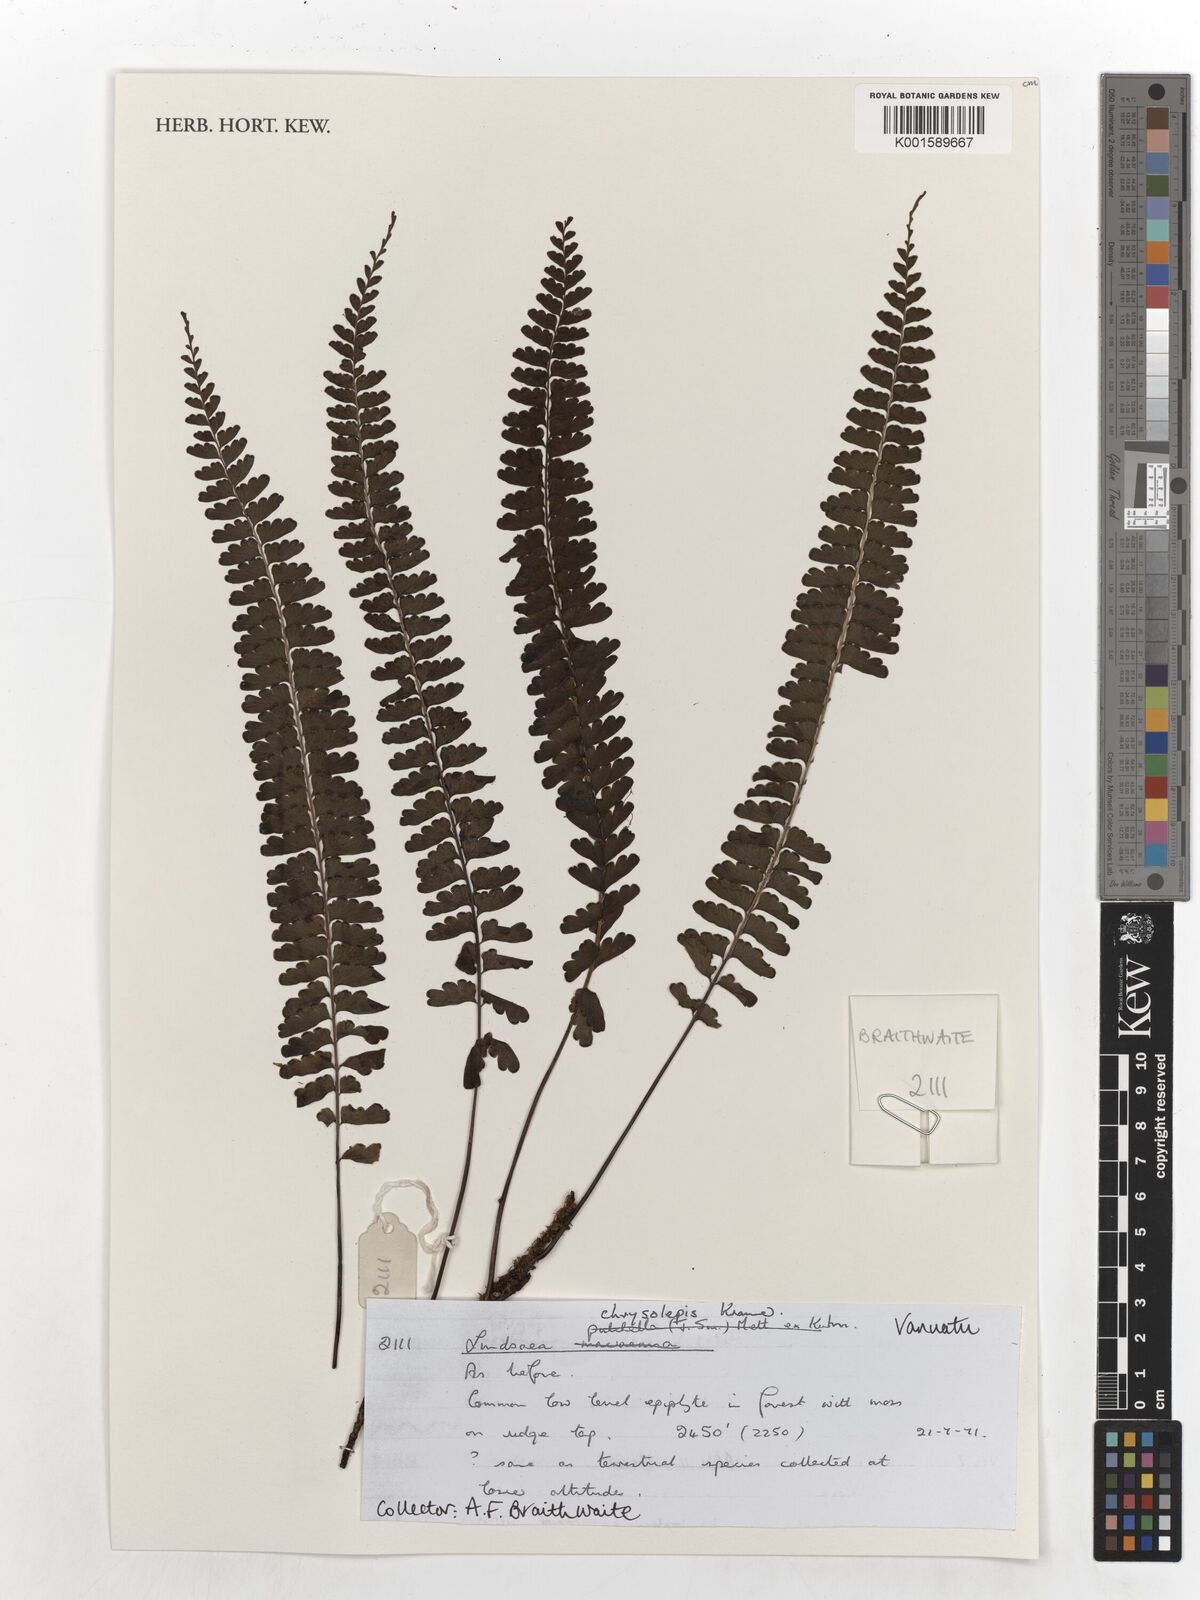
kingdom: Plantae
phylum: Tracheophyta
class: Polypodiopsida
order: Polypodiales
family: Lindsaeaceae
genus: Lindsaea
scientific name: Lindsaea chrysolepis
